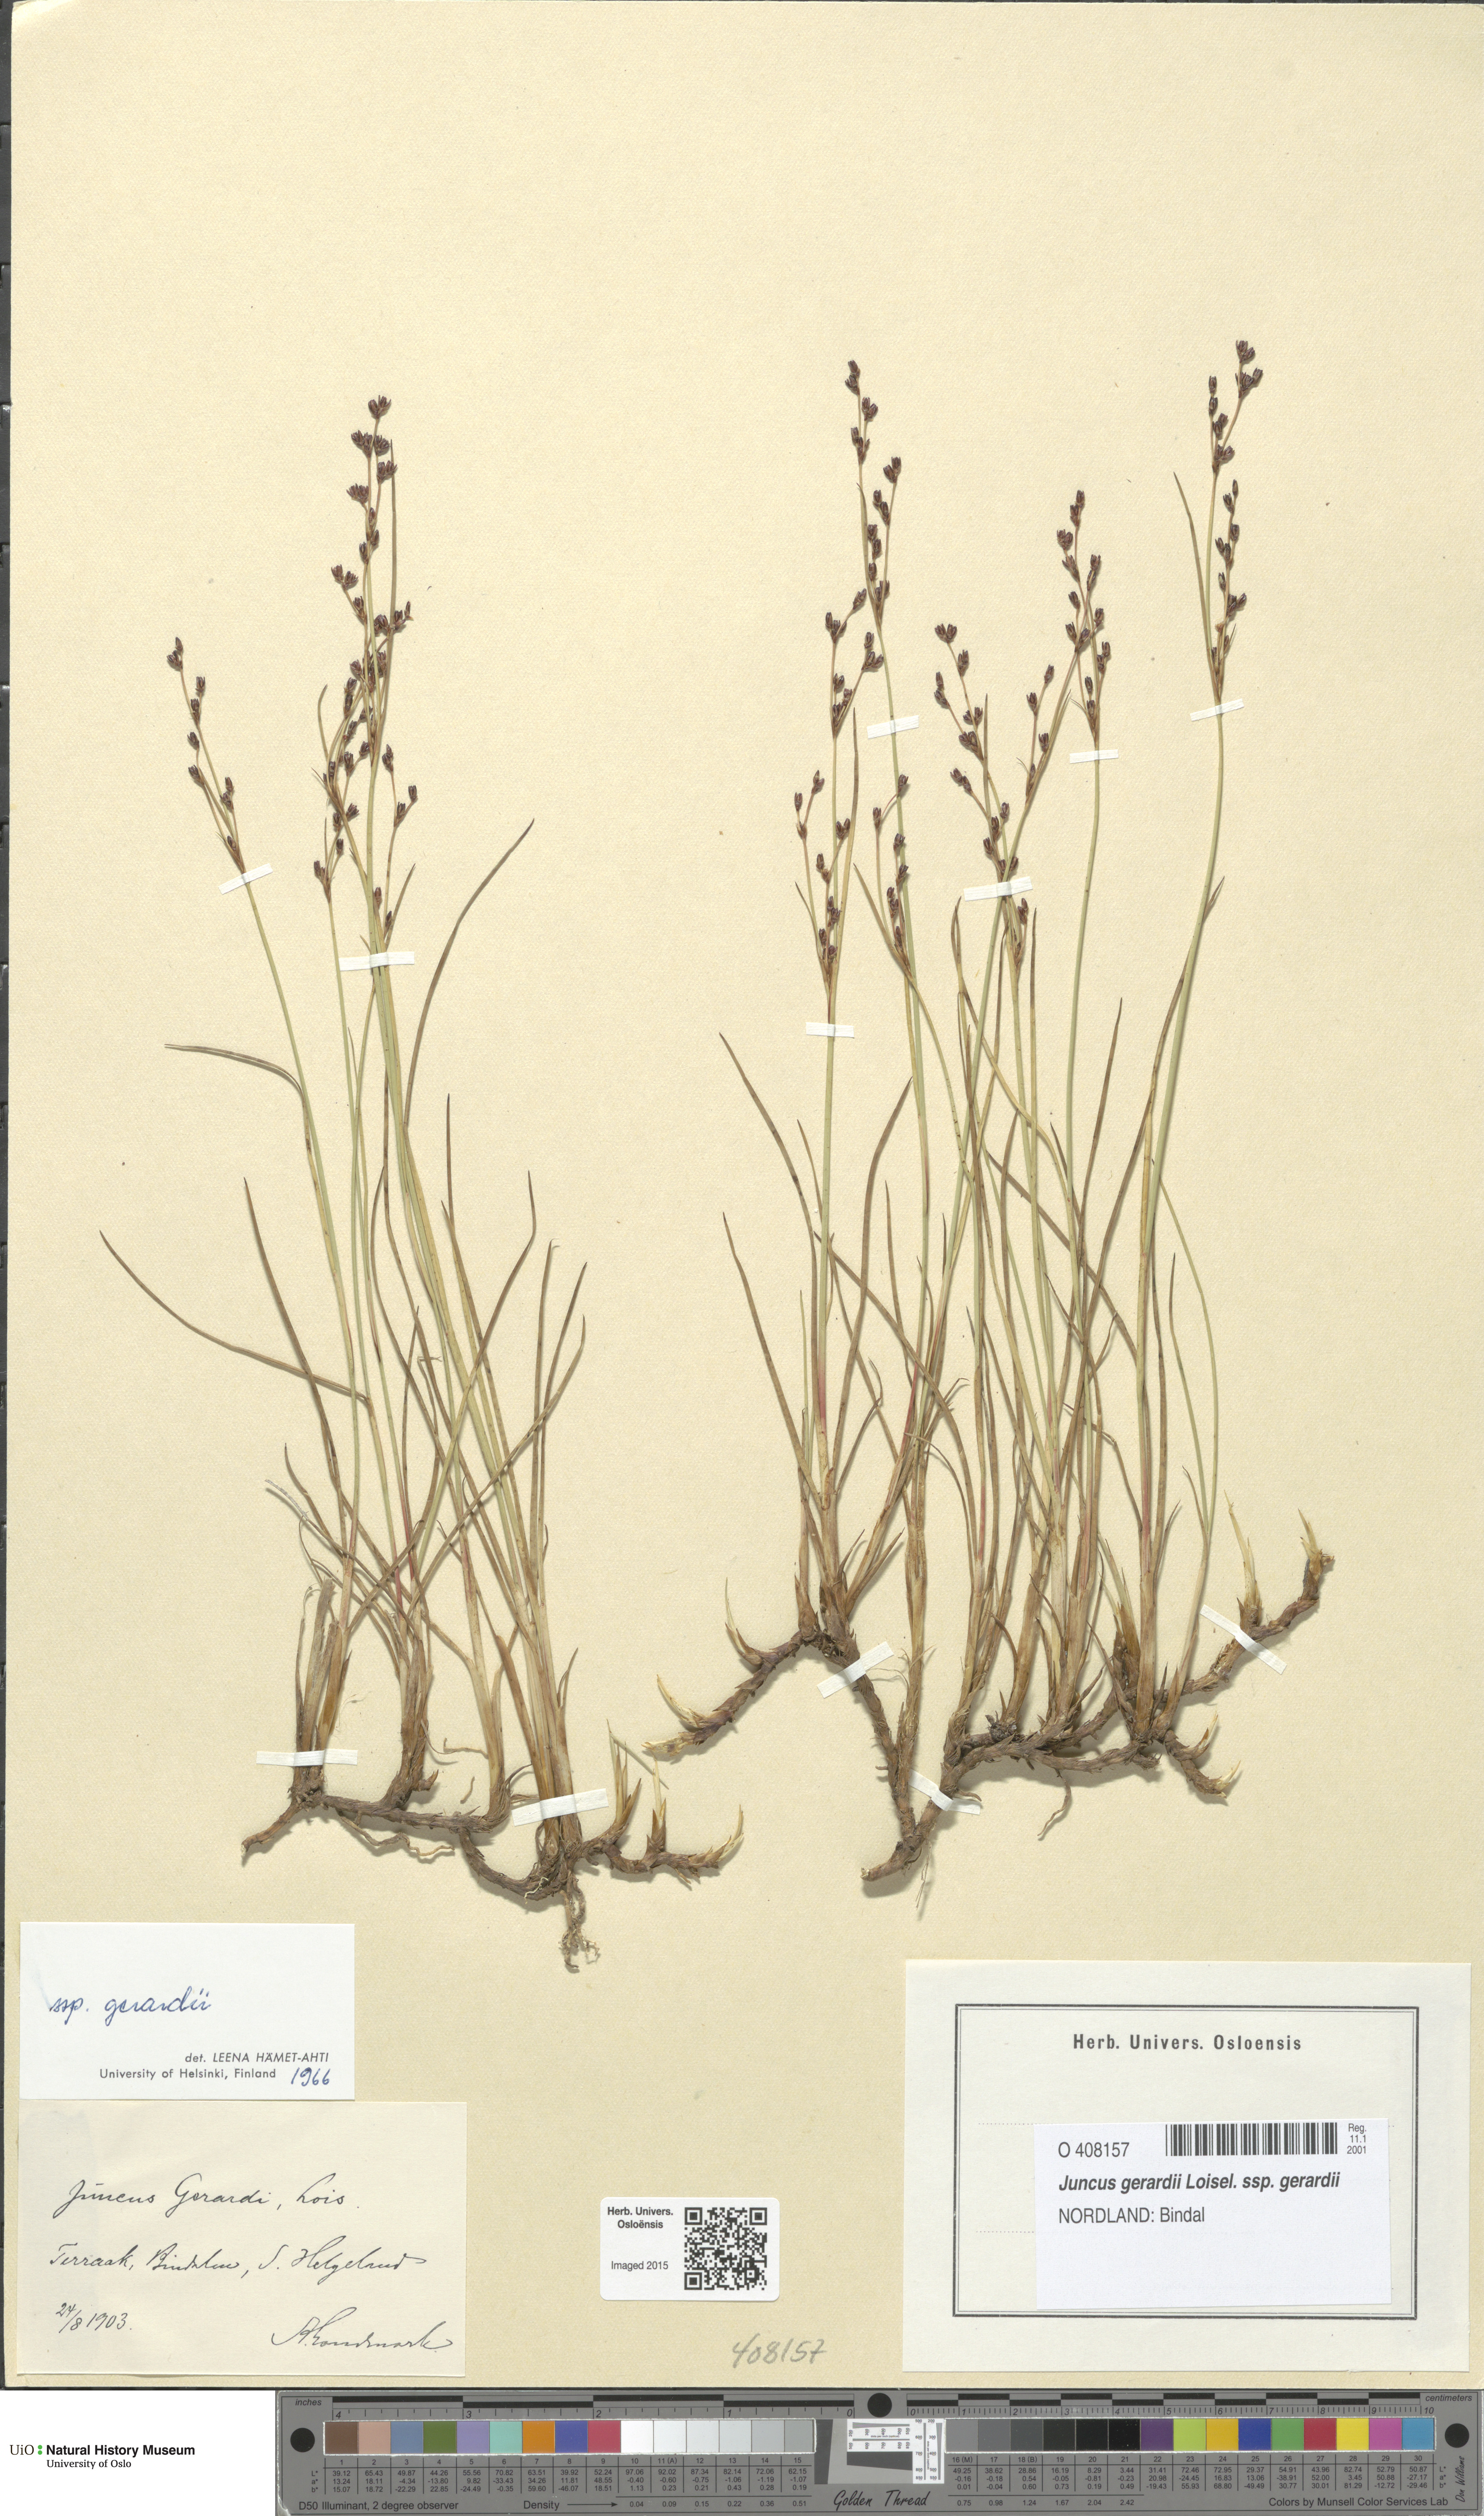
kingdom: Plantae
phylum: Tracheophyta
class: Liliopsida
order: Poales
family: Juncaceae
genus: Juncus
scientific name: Juncus gerardi
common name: Saltmarsh rush
